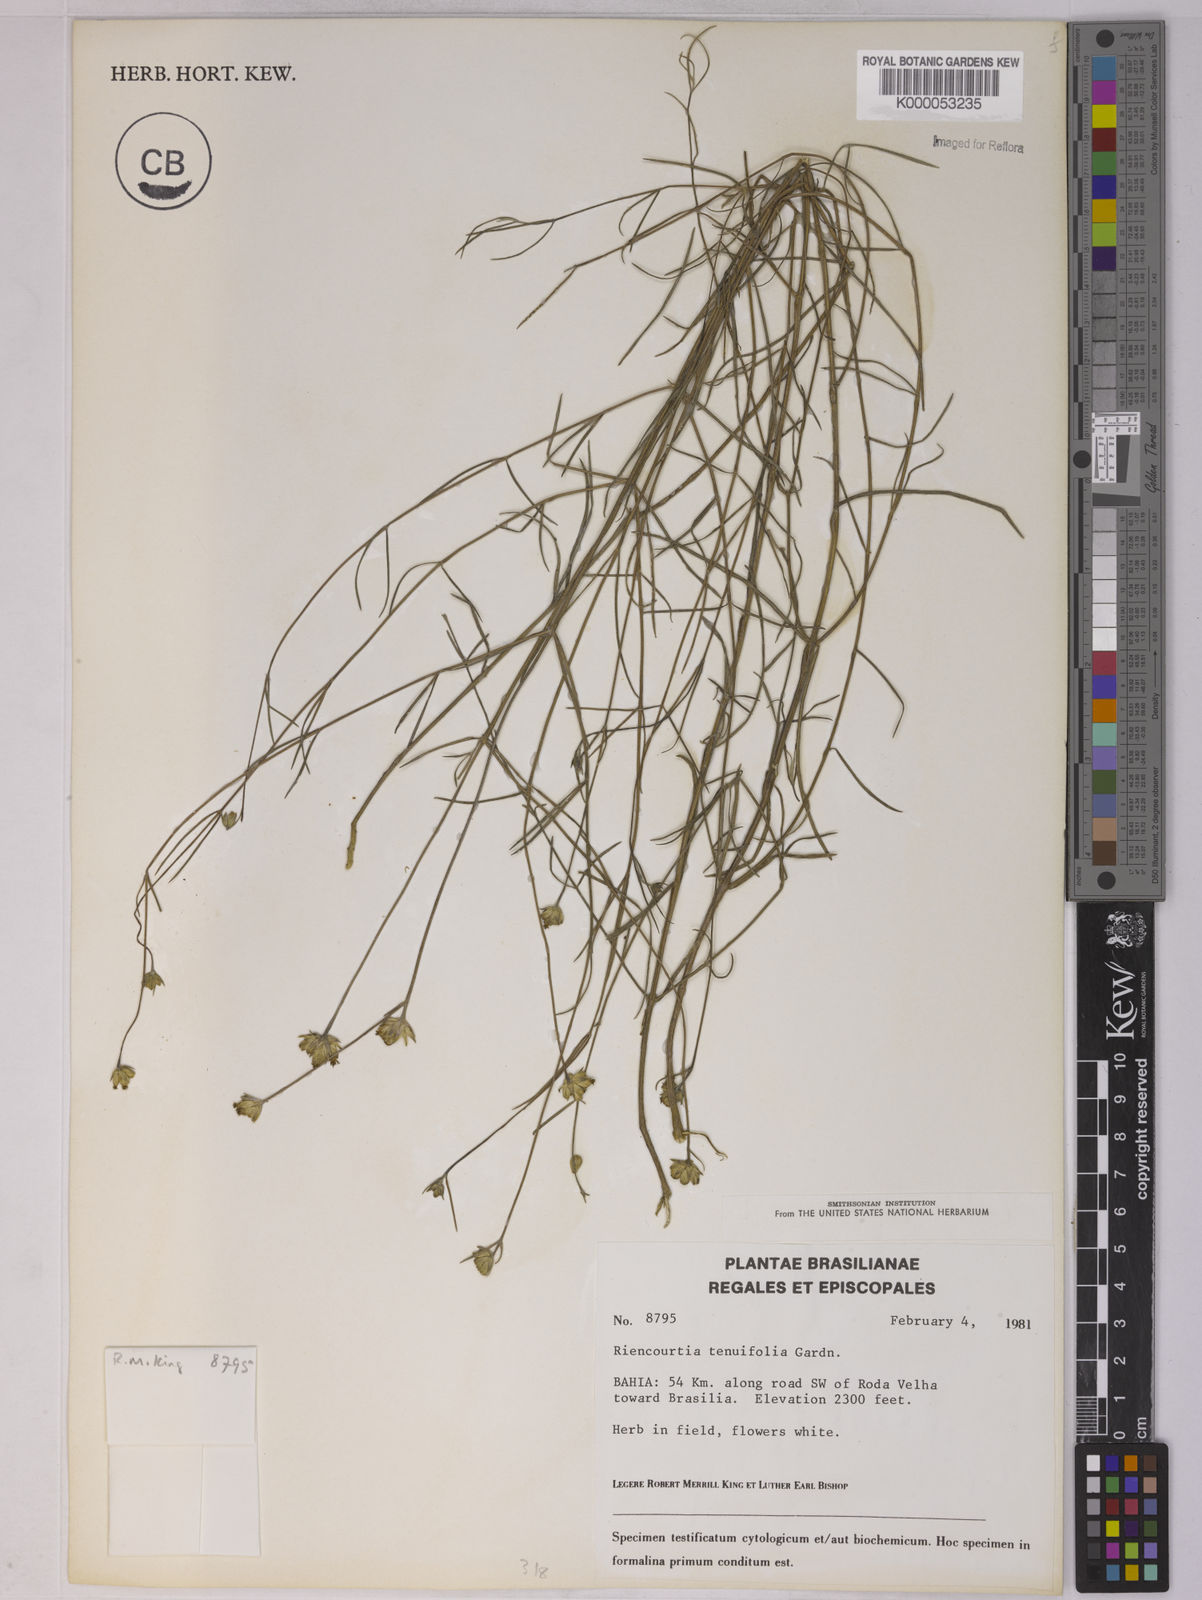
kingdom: Plantae
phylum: Tracheophyta
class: Magnoliopsida
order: Asterales
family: Asteraceae
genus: Riencourtia
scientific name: Riencourtia tenuifolia
